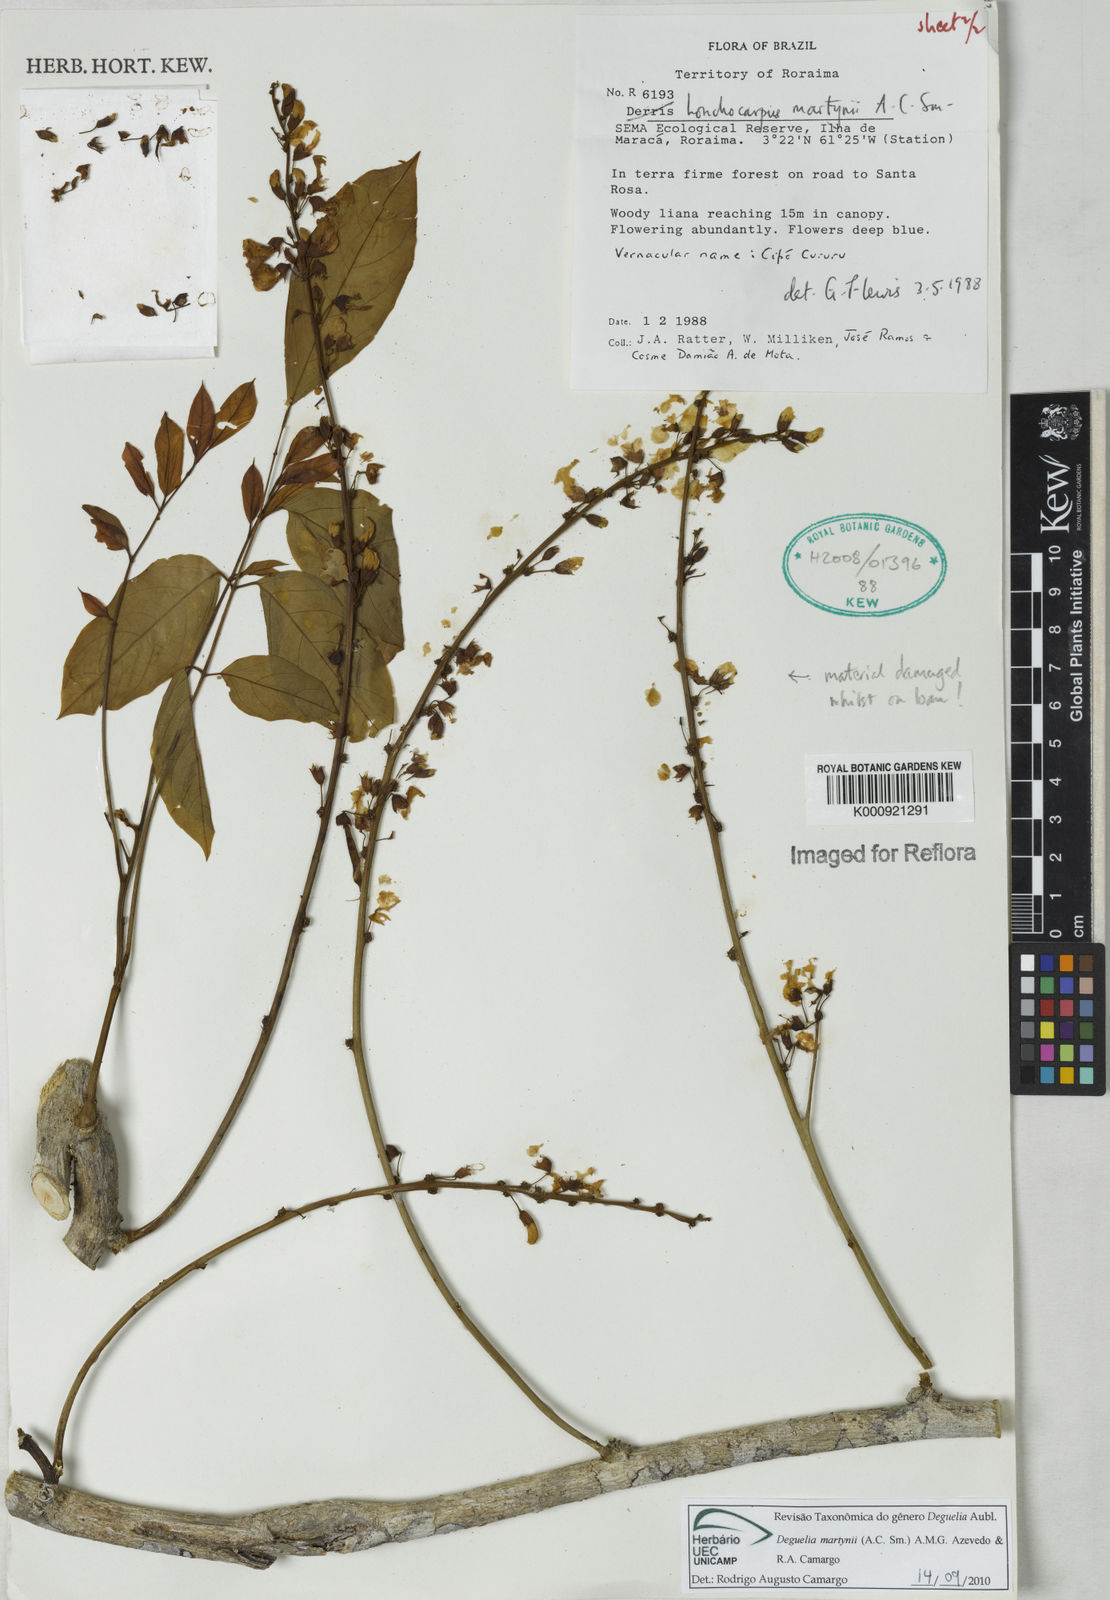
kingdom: Plantae
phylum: Tracheophyta
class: Magnoliopsida
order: Fabales
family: Fabaceae
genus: Deguelia
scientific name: Deguelia
